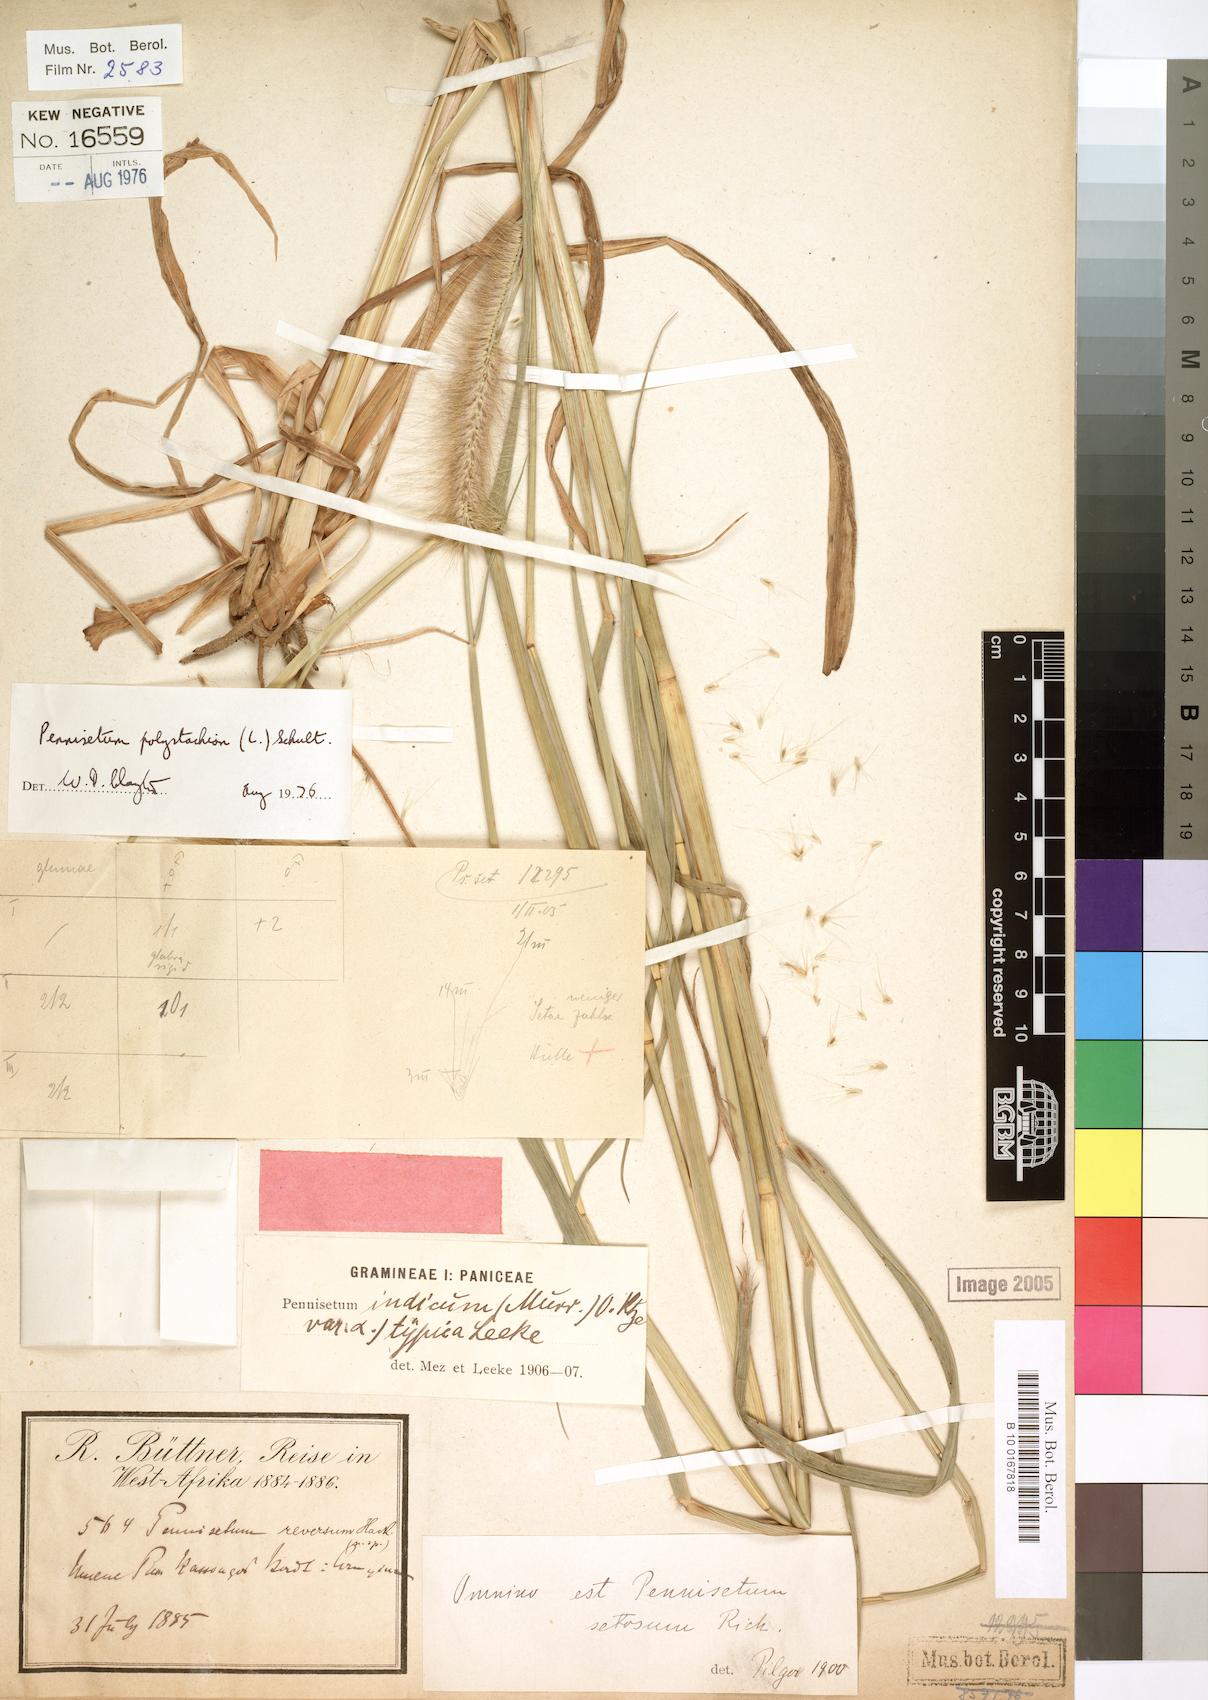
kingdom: Plantae
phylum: Tracheophyta
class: Liliopsida
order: Poales
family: Poaceae
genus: Setaria
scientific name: Setaria parviflora
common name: Knotroot bristle-grass
